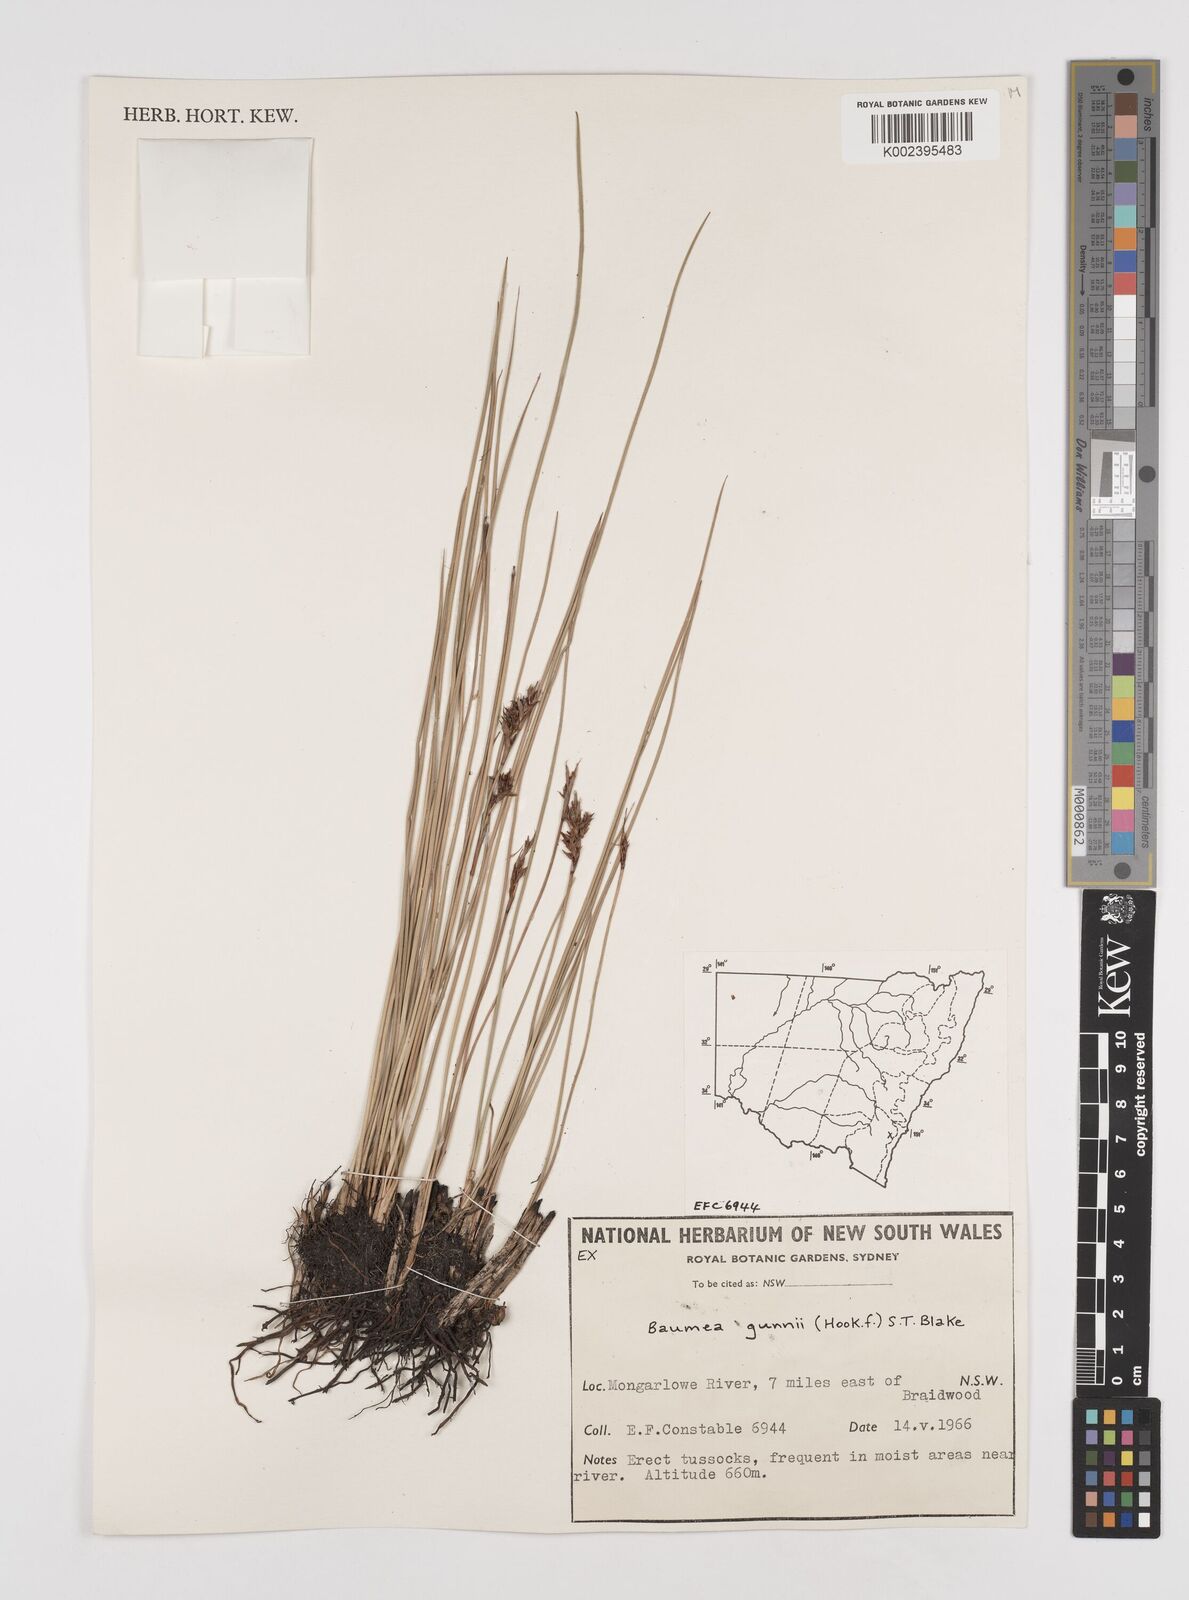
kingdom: Plantae
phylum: Tracheophyta
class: Liliopsida
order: Poales
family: Cyperaceae
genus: Machaerina
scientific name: Machaerina gunnii
